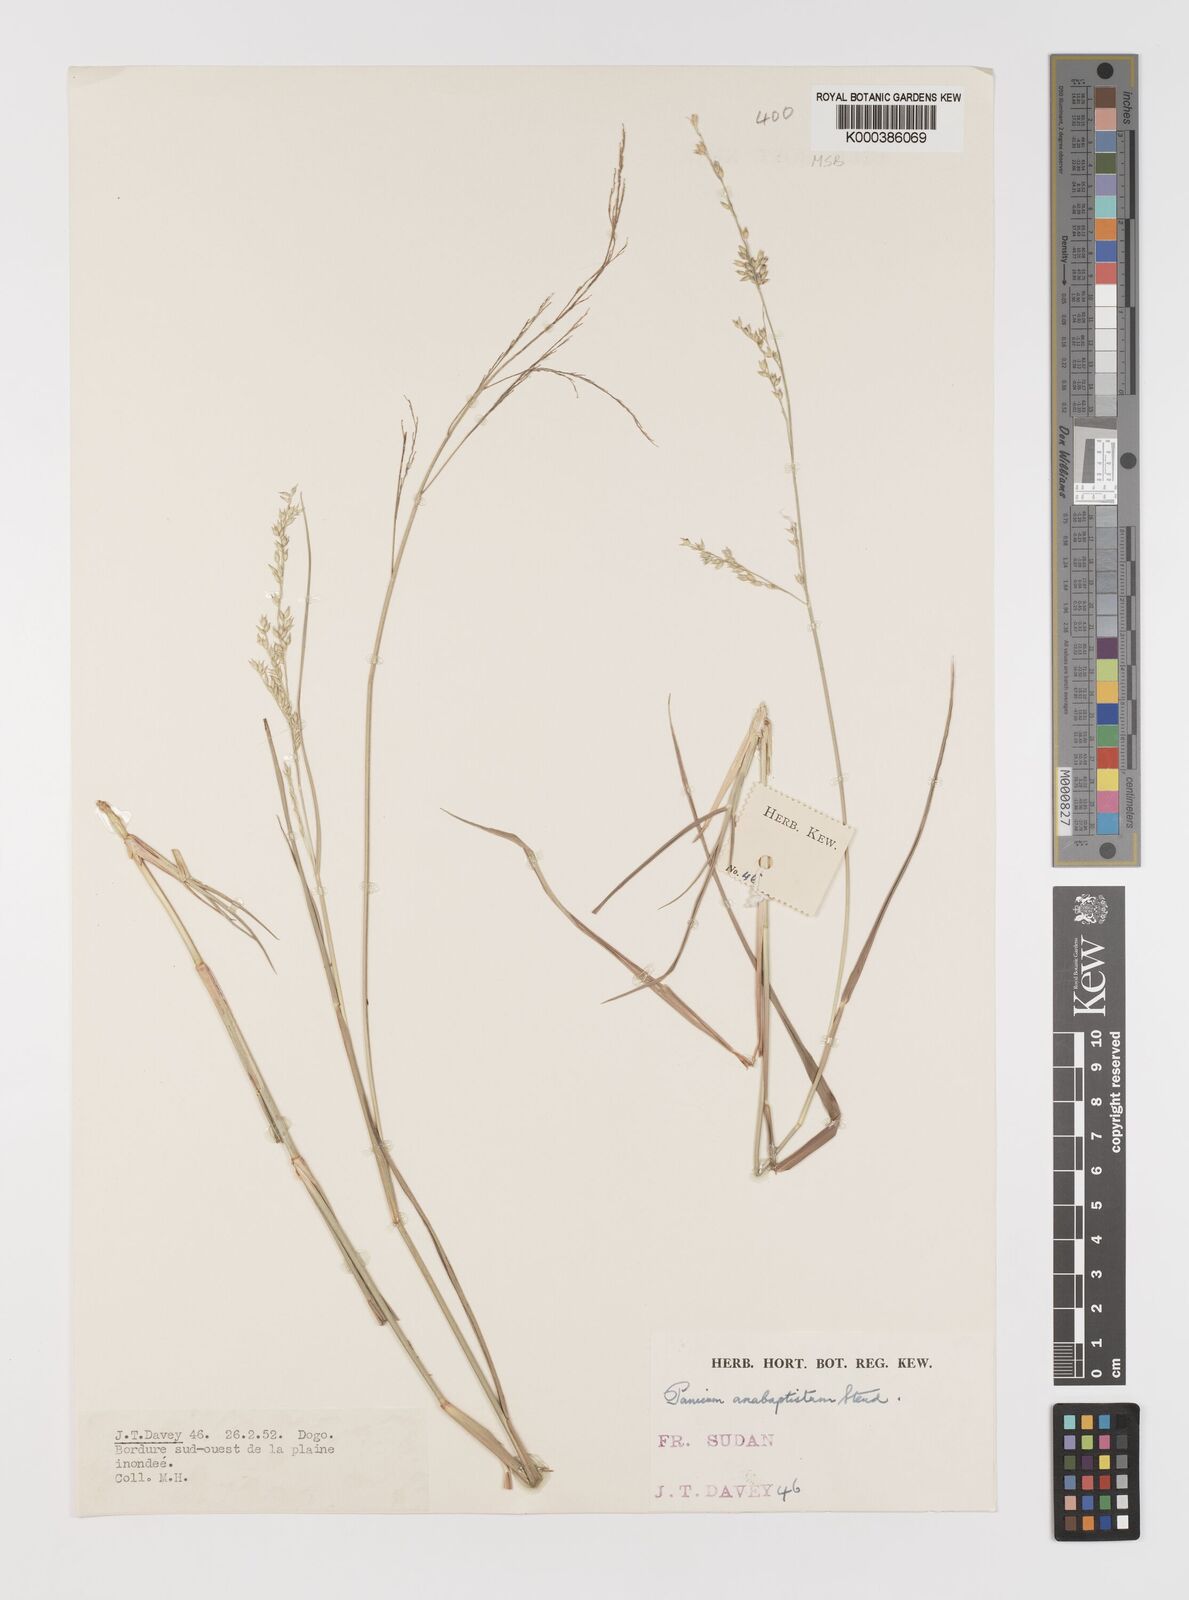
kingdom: Plantae
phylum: Tracheophyta
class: Liliopsida
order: Poales
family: Poaceae
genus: Panicum
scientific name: Panicum anabaptistum
